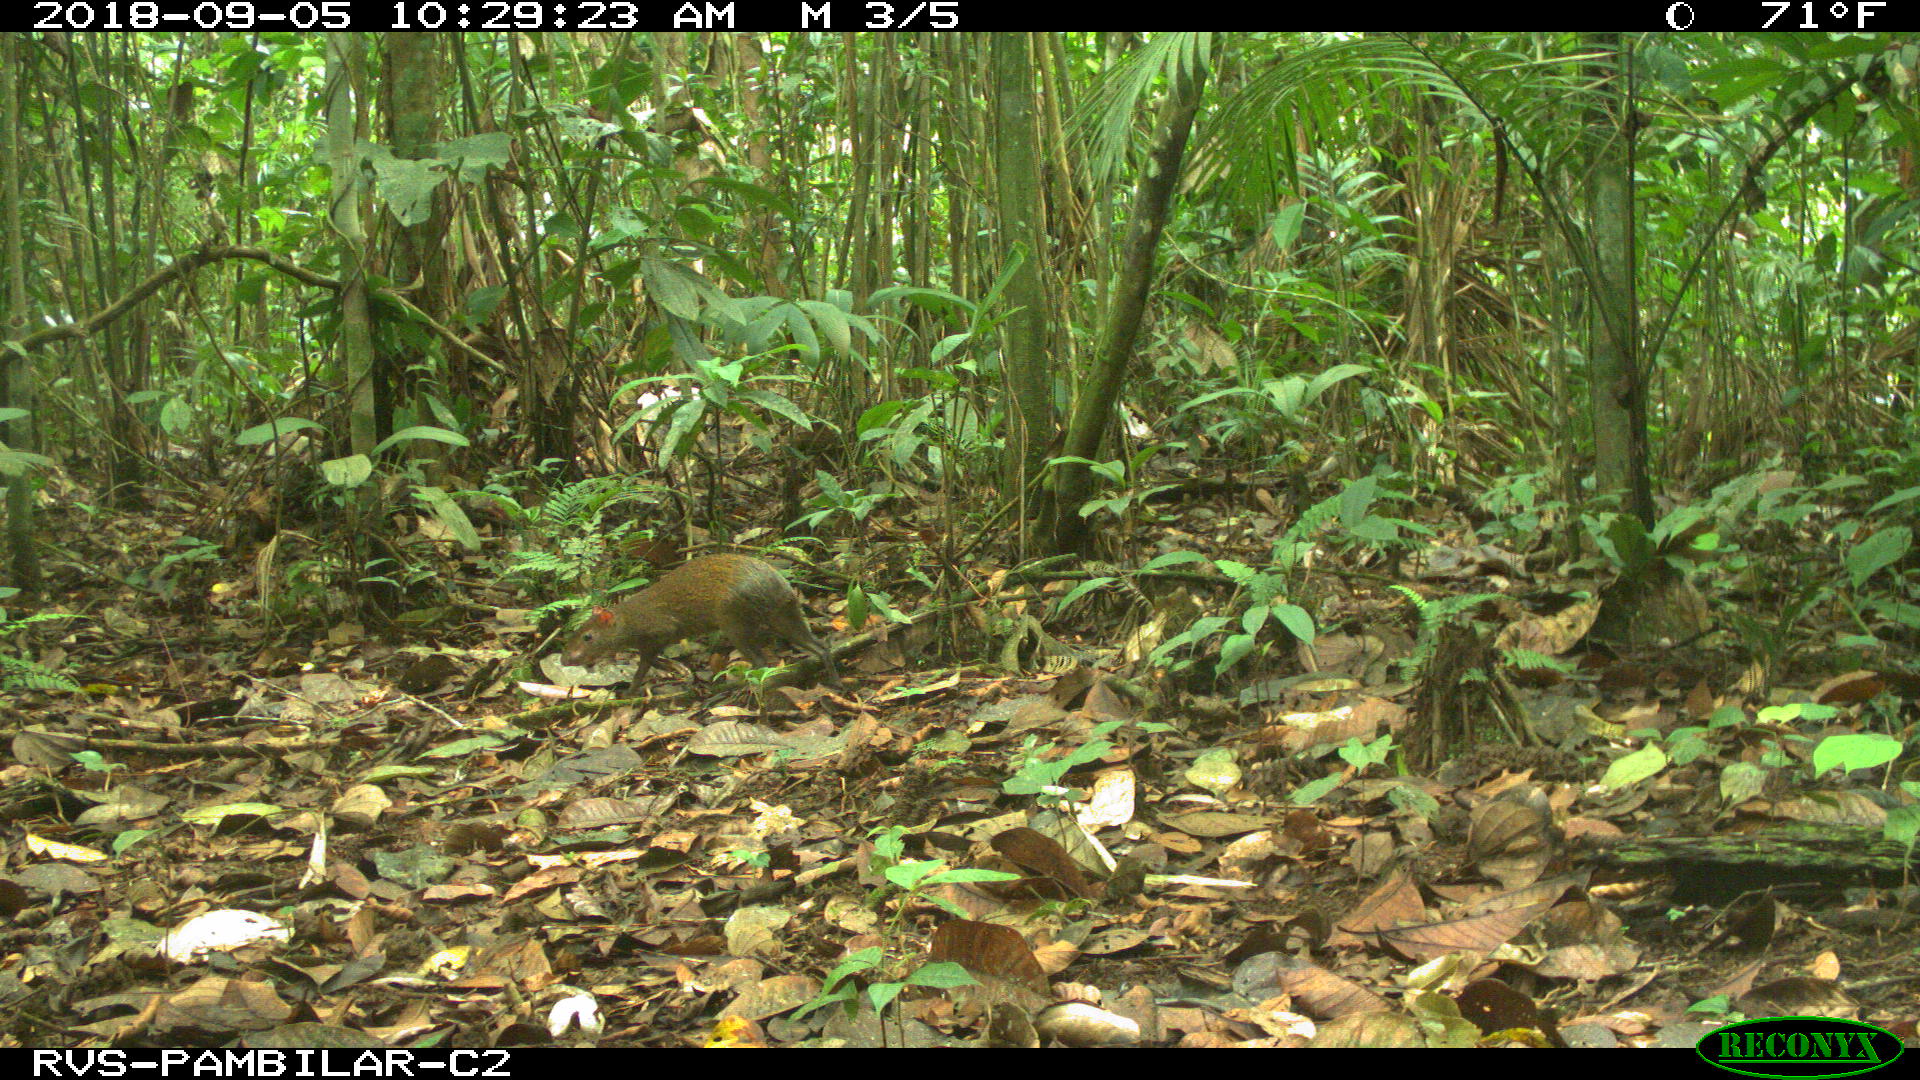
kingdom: Animalia
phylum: Chordata
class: Mammalia
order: Rodentia
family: Dasyproctidae
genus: Dasyprocta
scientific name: Dasyprocta punctata
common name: Central american agouti
